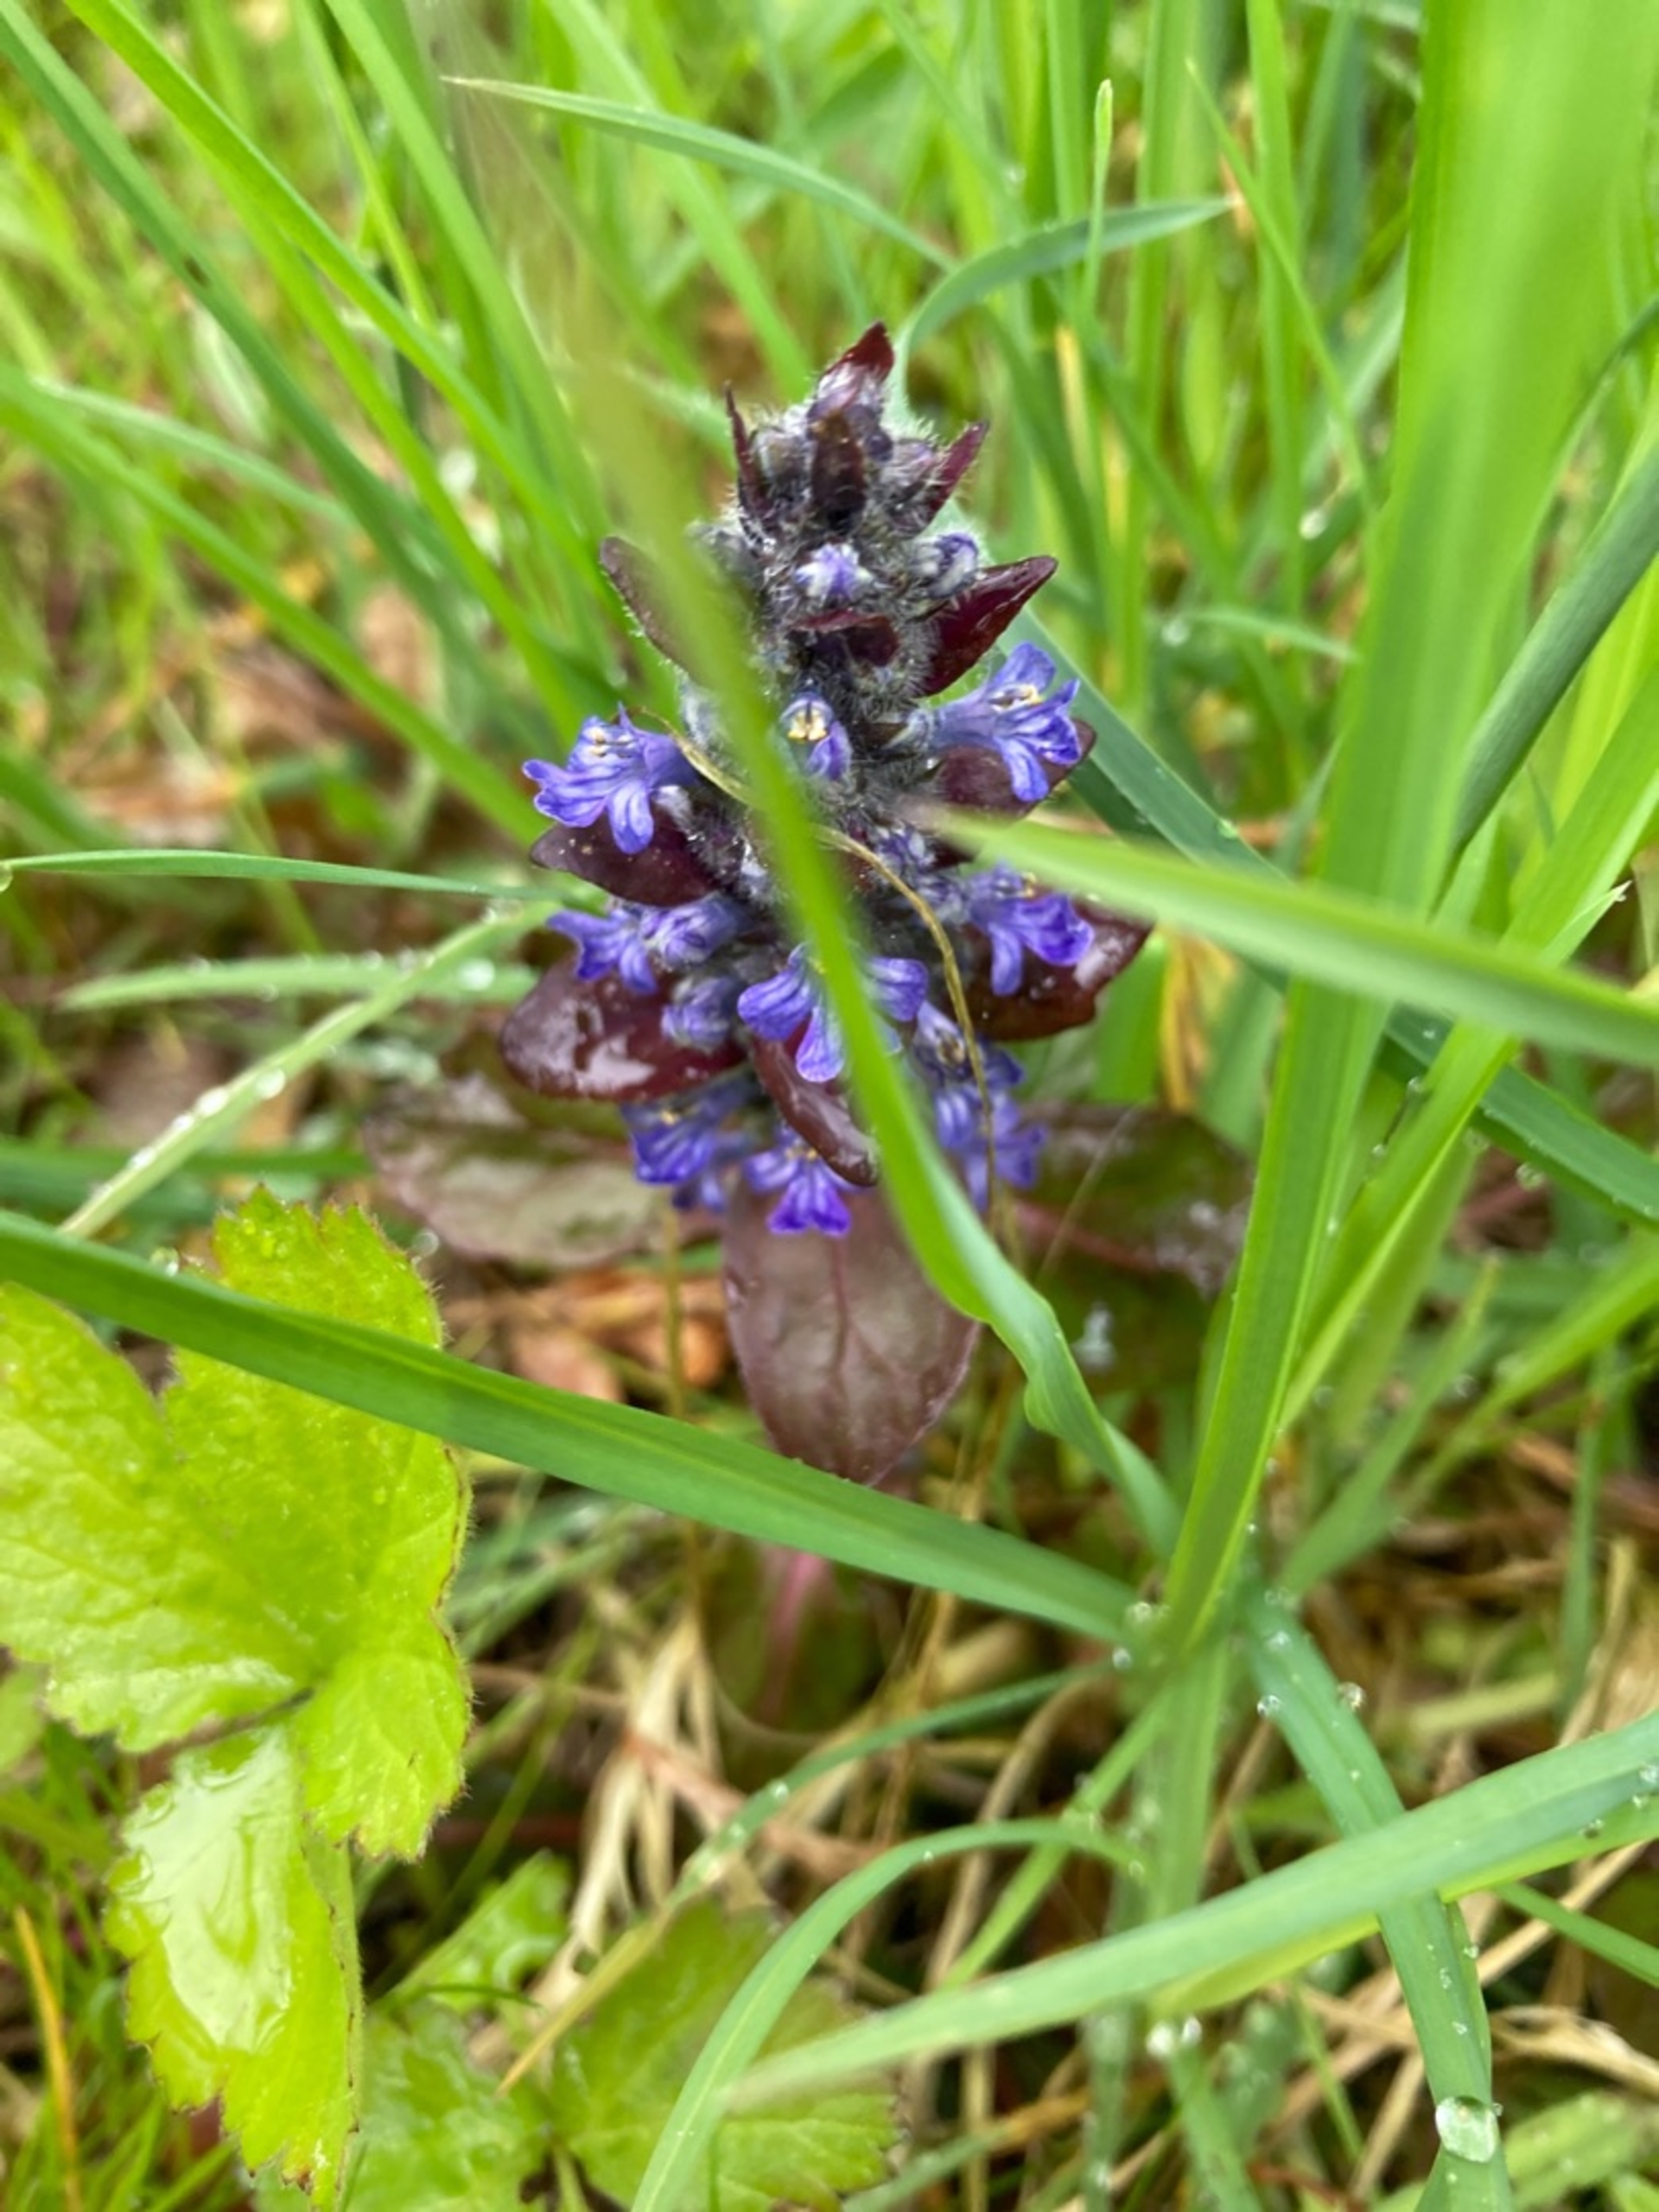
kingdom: Plantae
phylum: Tracheophyta
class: Magnoliopsida
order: Lamiales
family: Lamiaceae
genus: Ajuga
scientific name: Ajuga reptans
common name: Krybende læbeløs
